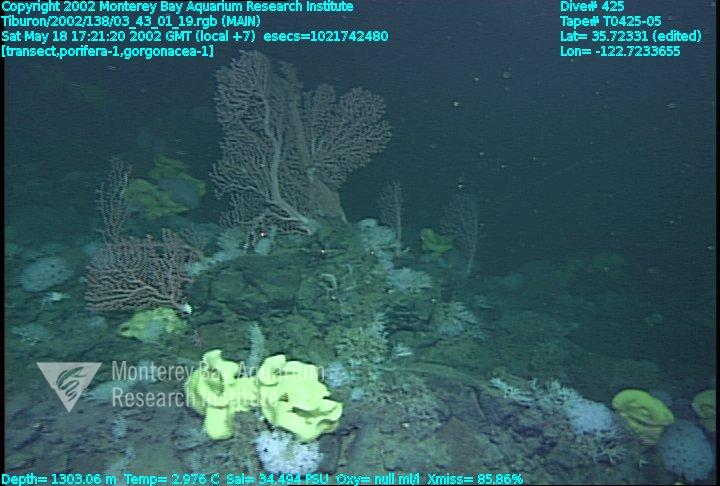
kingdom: Animalia
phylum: Porifera
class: Hexactinellida
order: Lyssacinosida
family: Rossellidae
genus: Staurocalyptus
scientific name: Staurocalyptus
